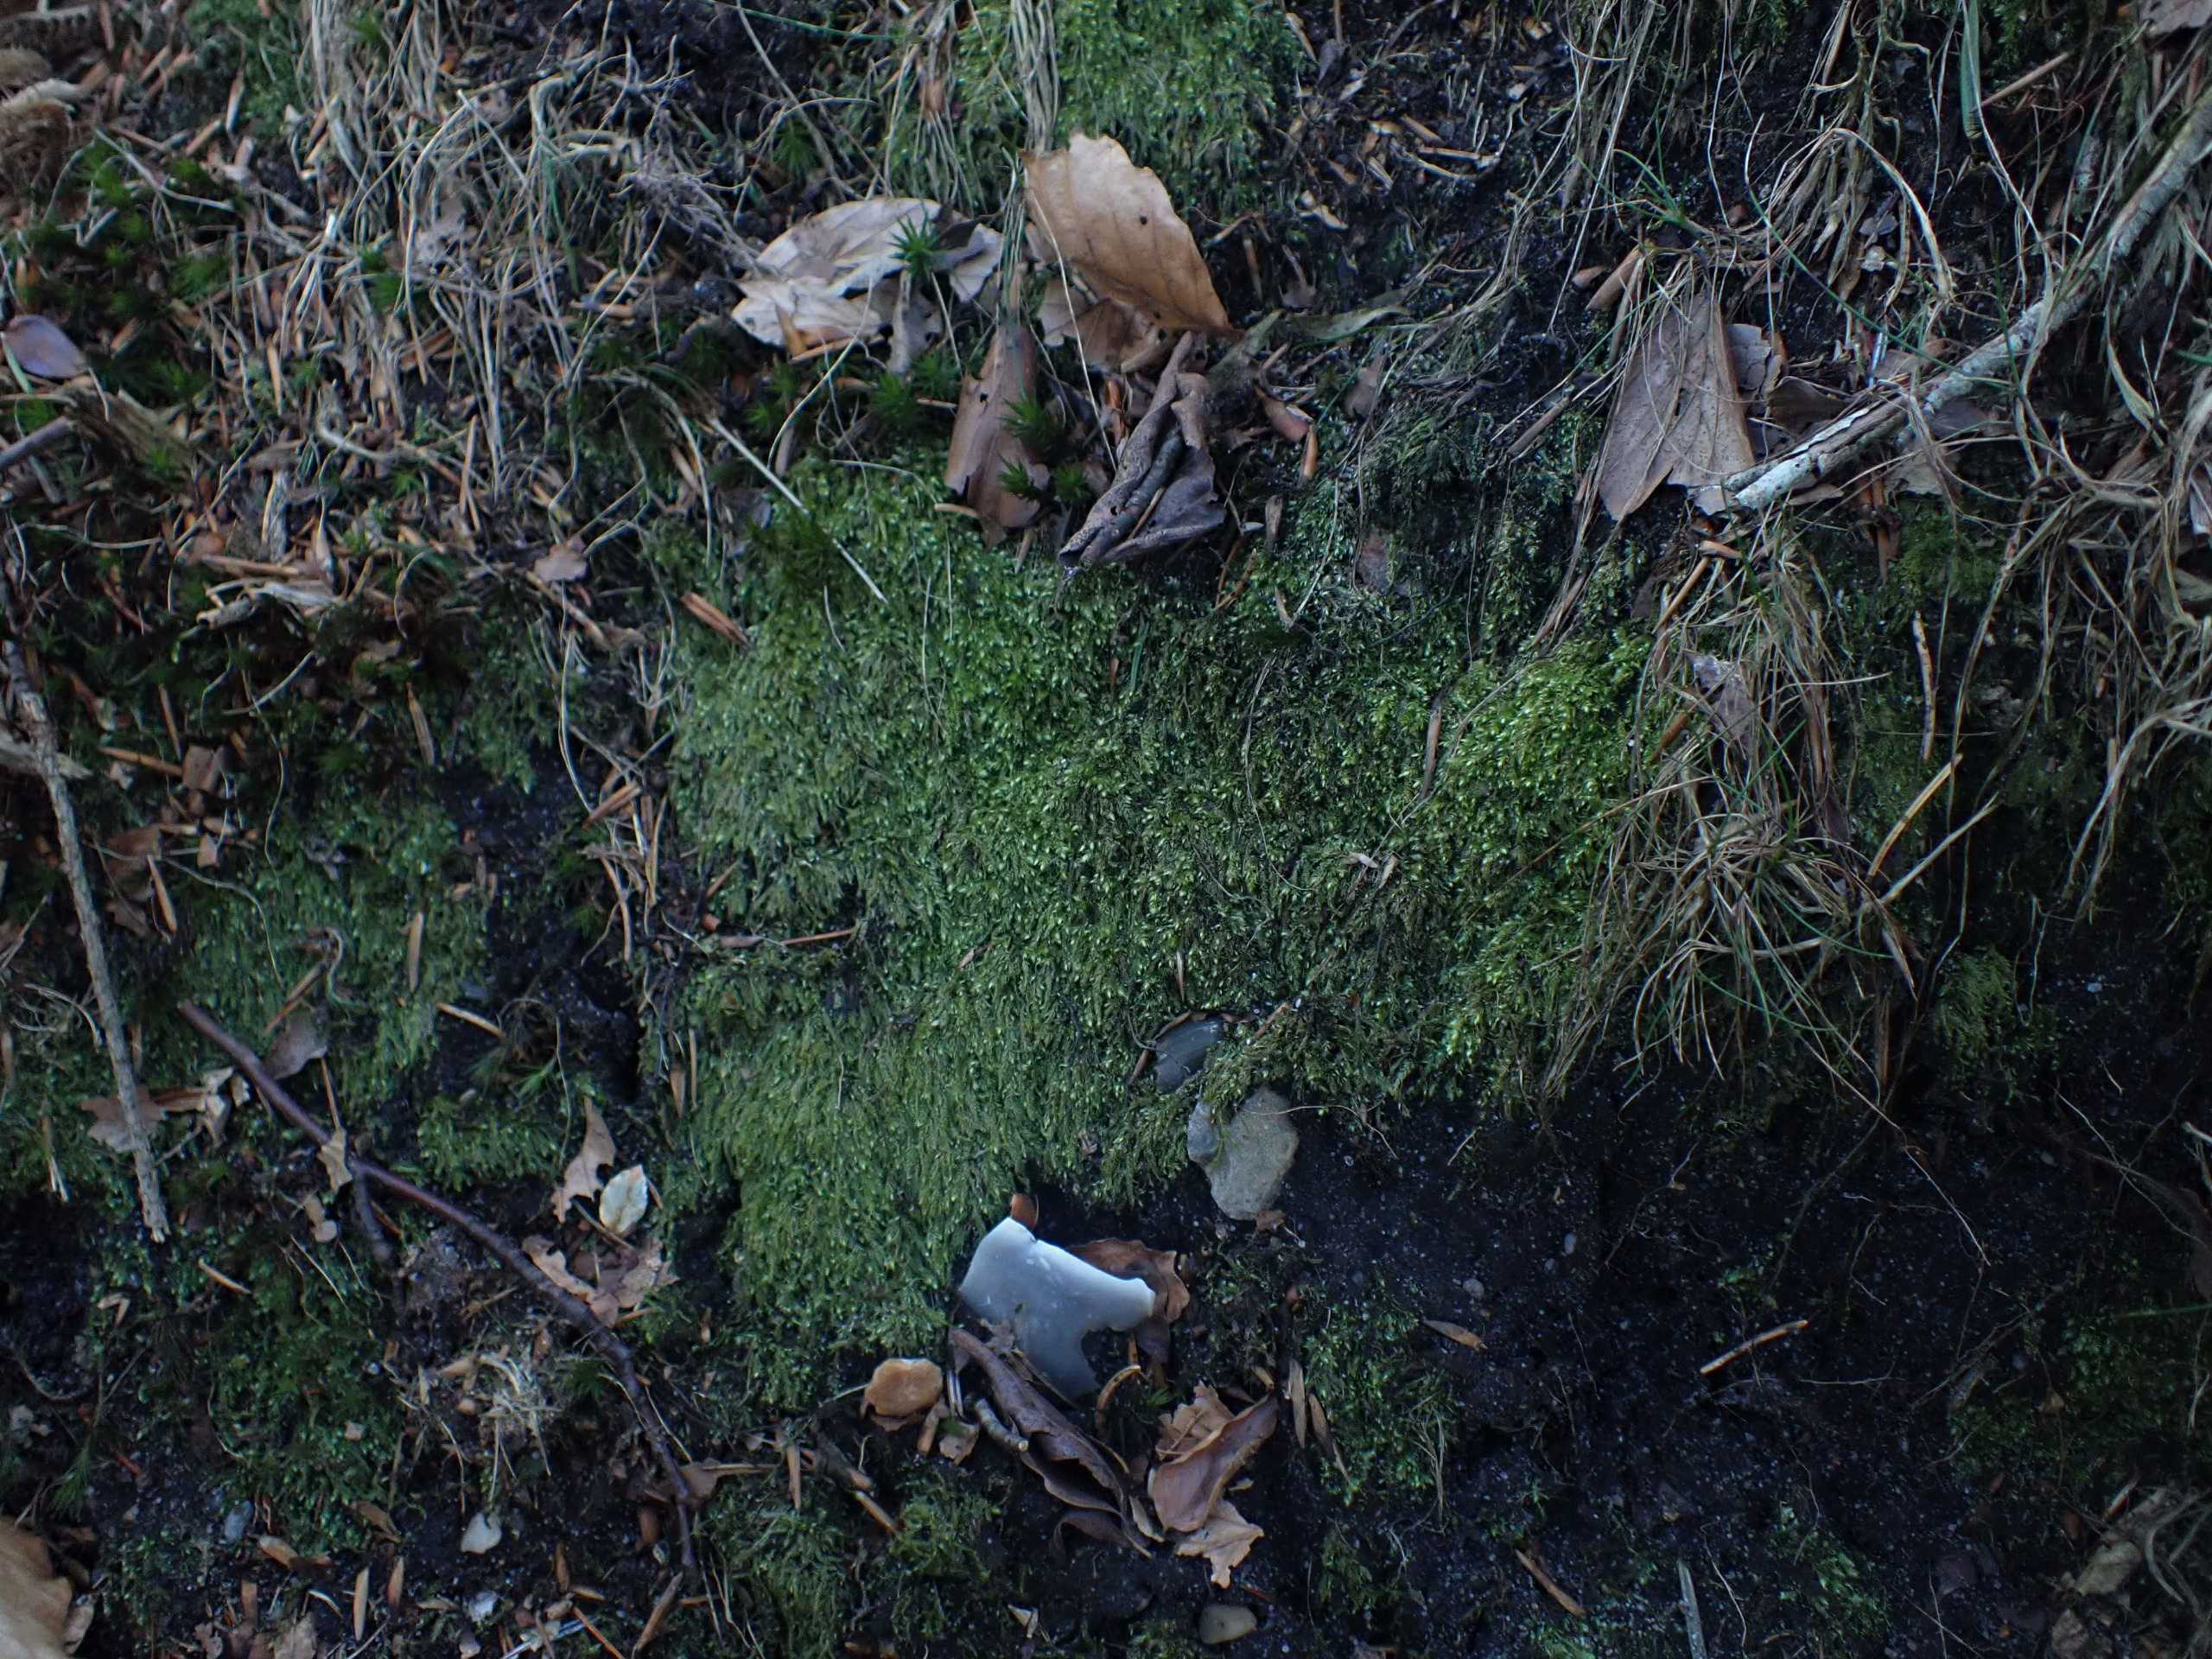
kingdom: Plantae
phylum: Bryophyta
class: Bryopsida
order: Hypnales
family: Plagiotheciaceae
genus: Pseudotaxiphyllum
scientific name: Pseudotaxiphyllum elegans
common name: Skinnende ynglegren
